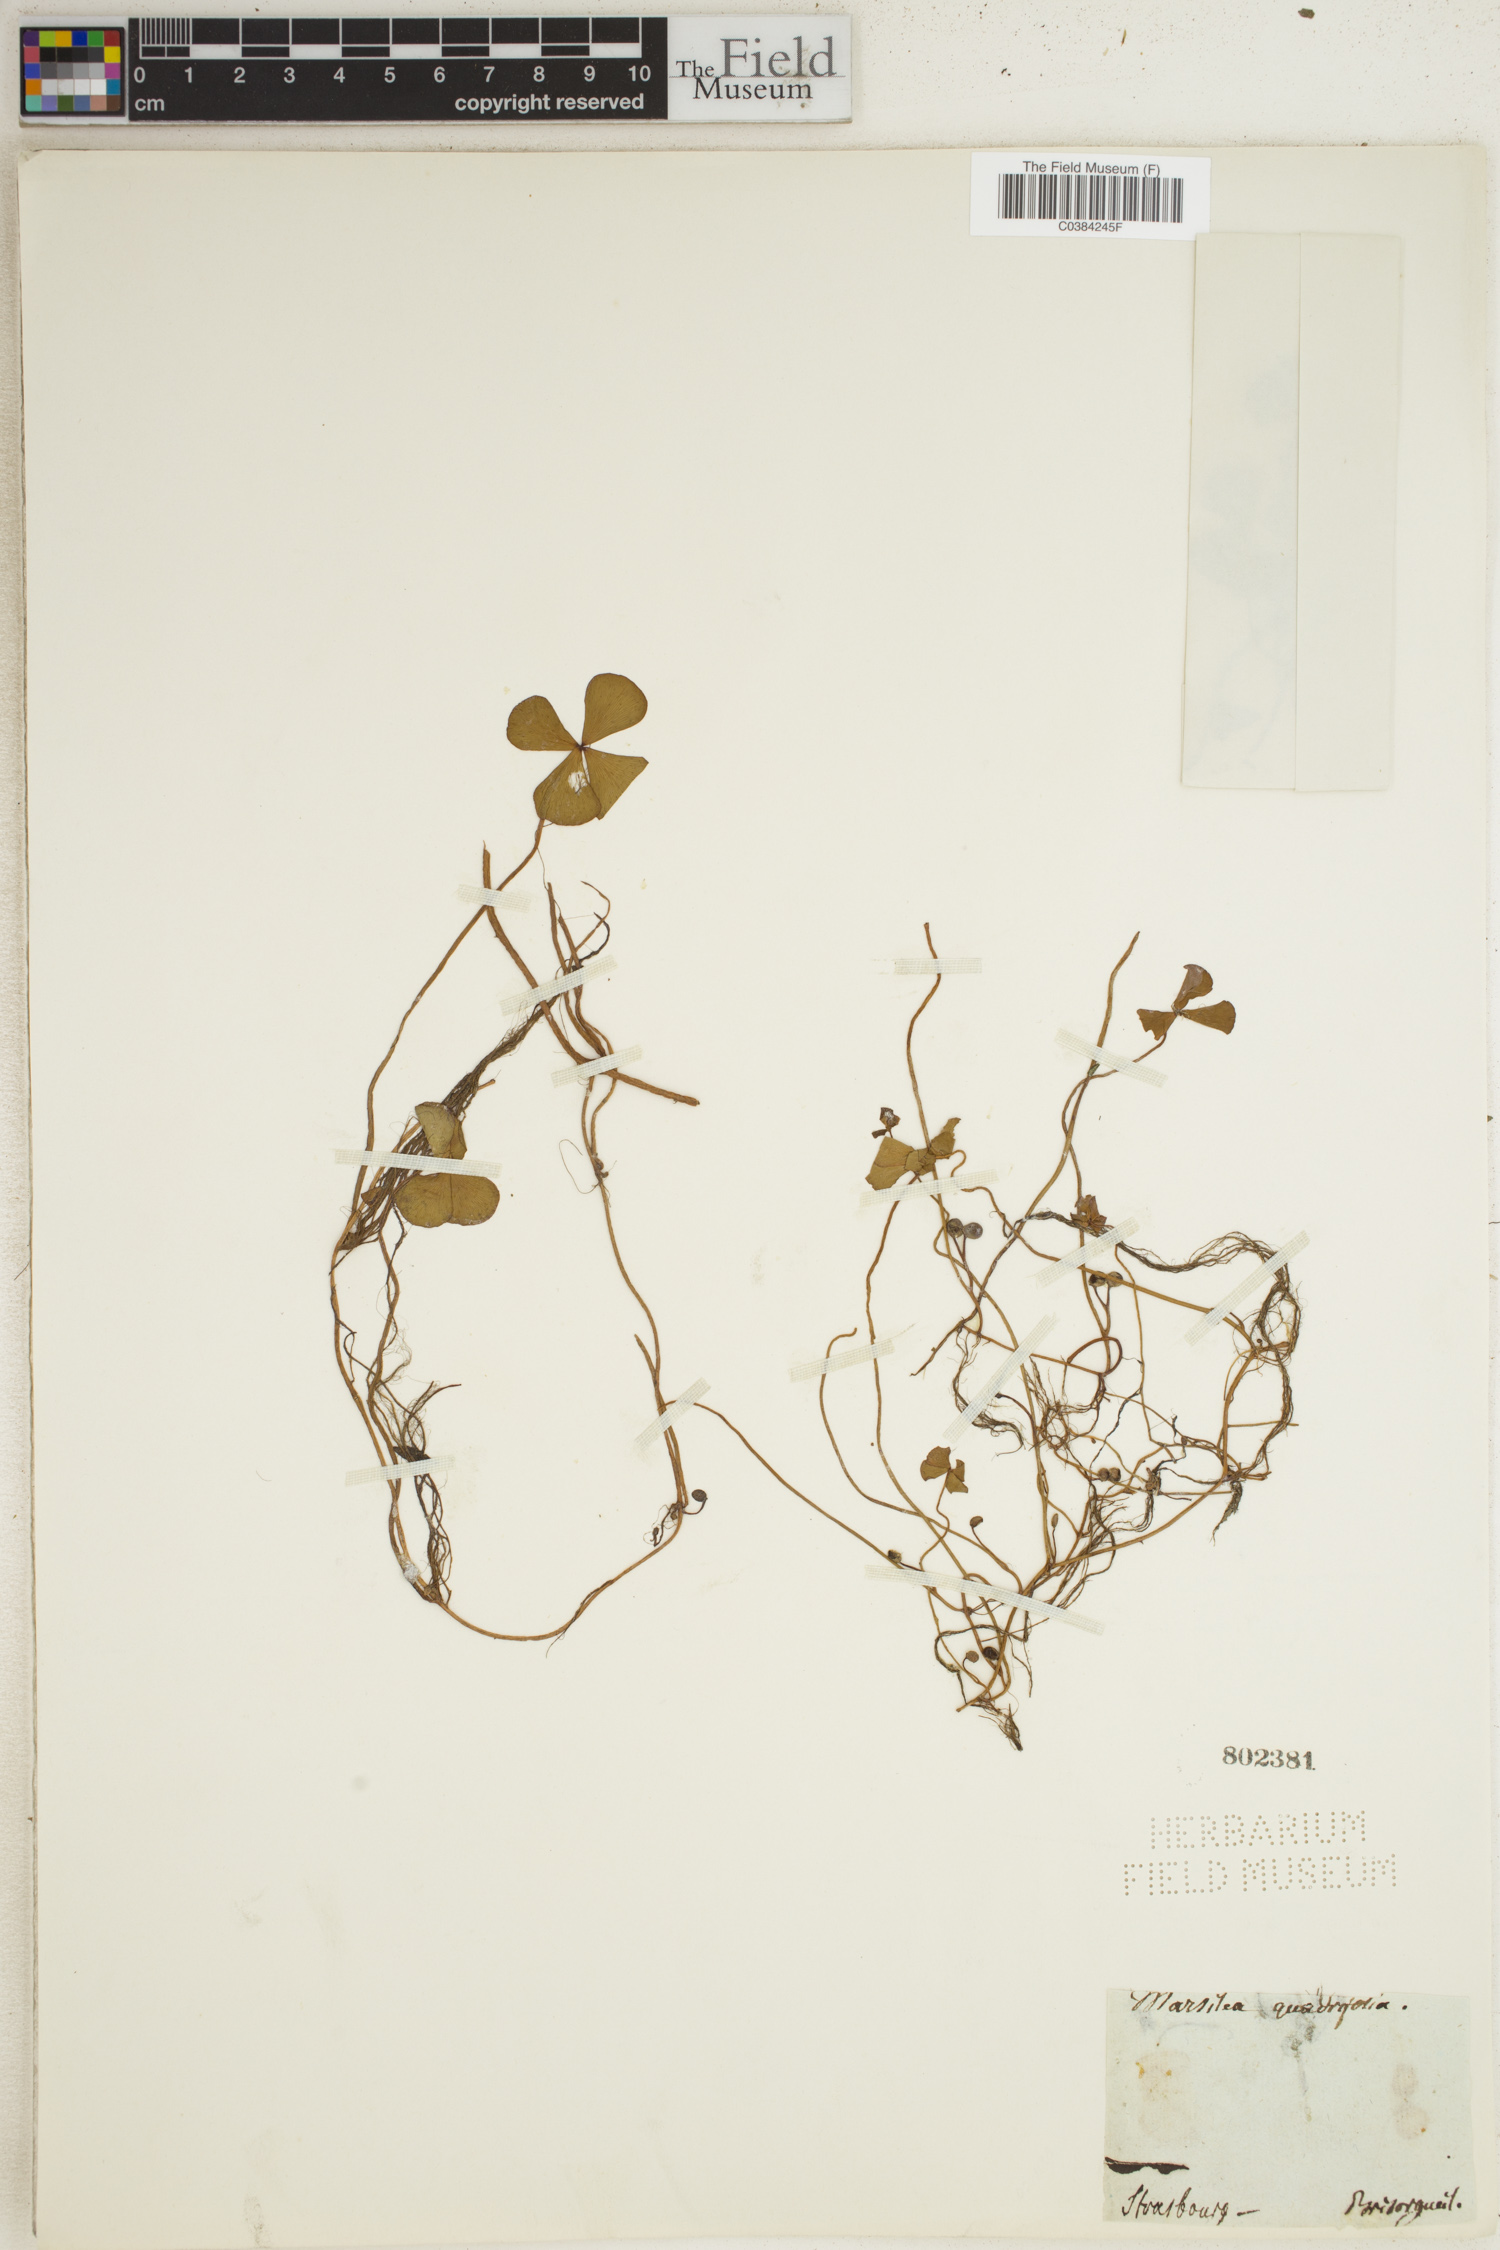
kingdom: Plantae
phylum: Tracheophyta
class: Polypodiopsida
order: Salviniales
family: Marsileaceae
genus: Marsilea
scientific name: Marsilea quadrifolia
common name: Water shamrock
